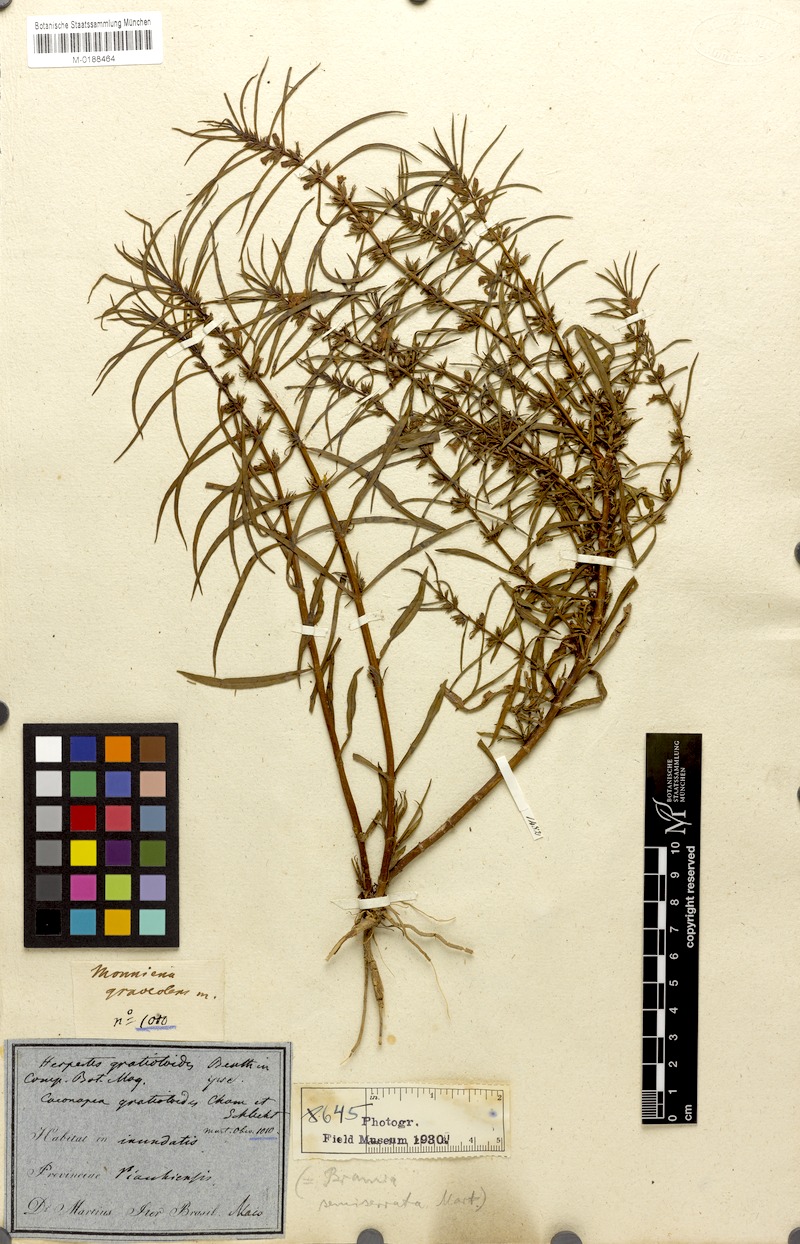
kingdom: Plantae
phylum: Tracheophyta
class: Magnoliopsida
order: Lamiales
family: Plantaginaceae
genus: Bacopa
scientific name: Bacopa gratioloides
